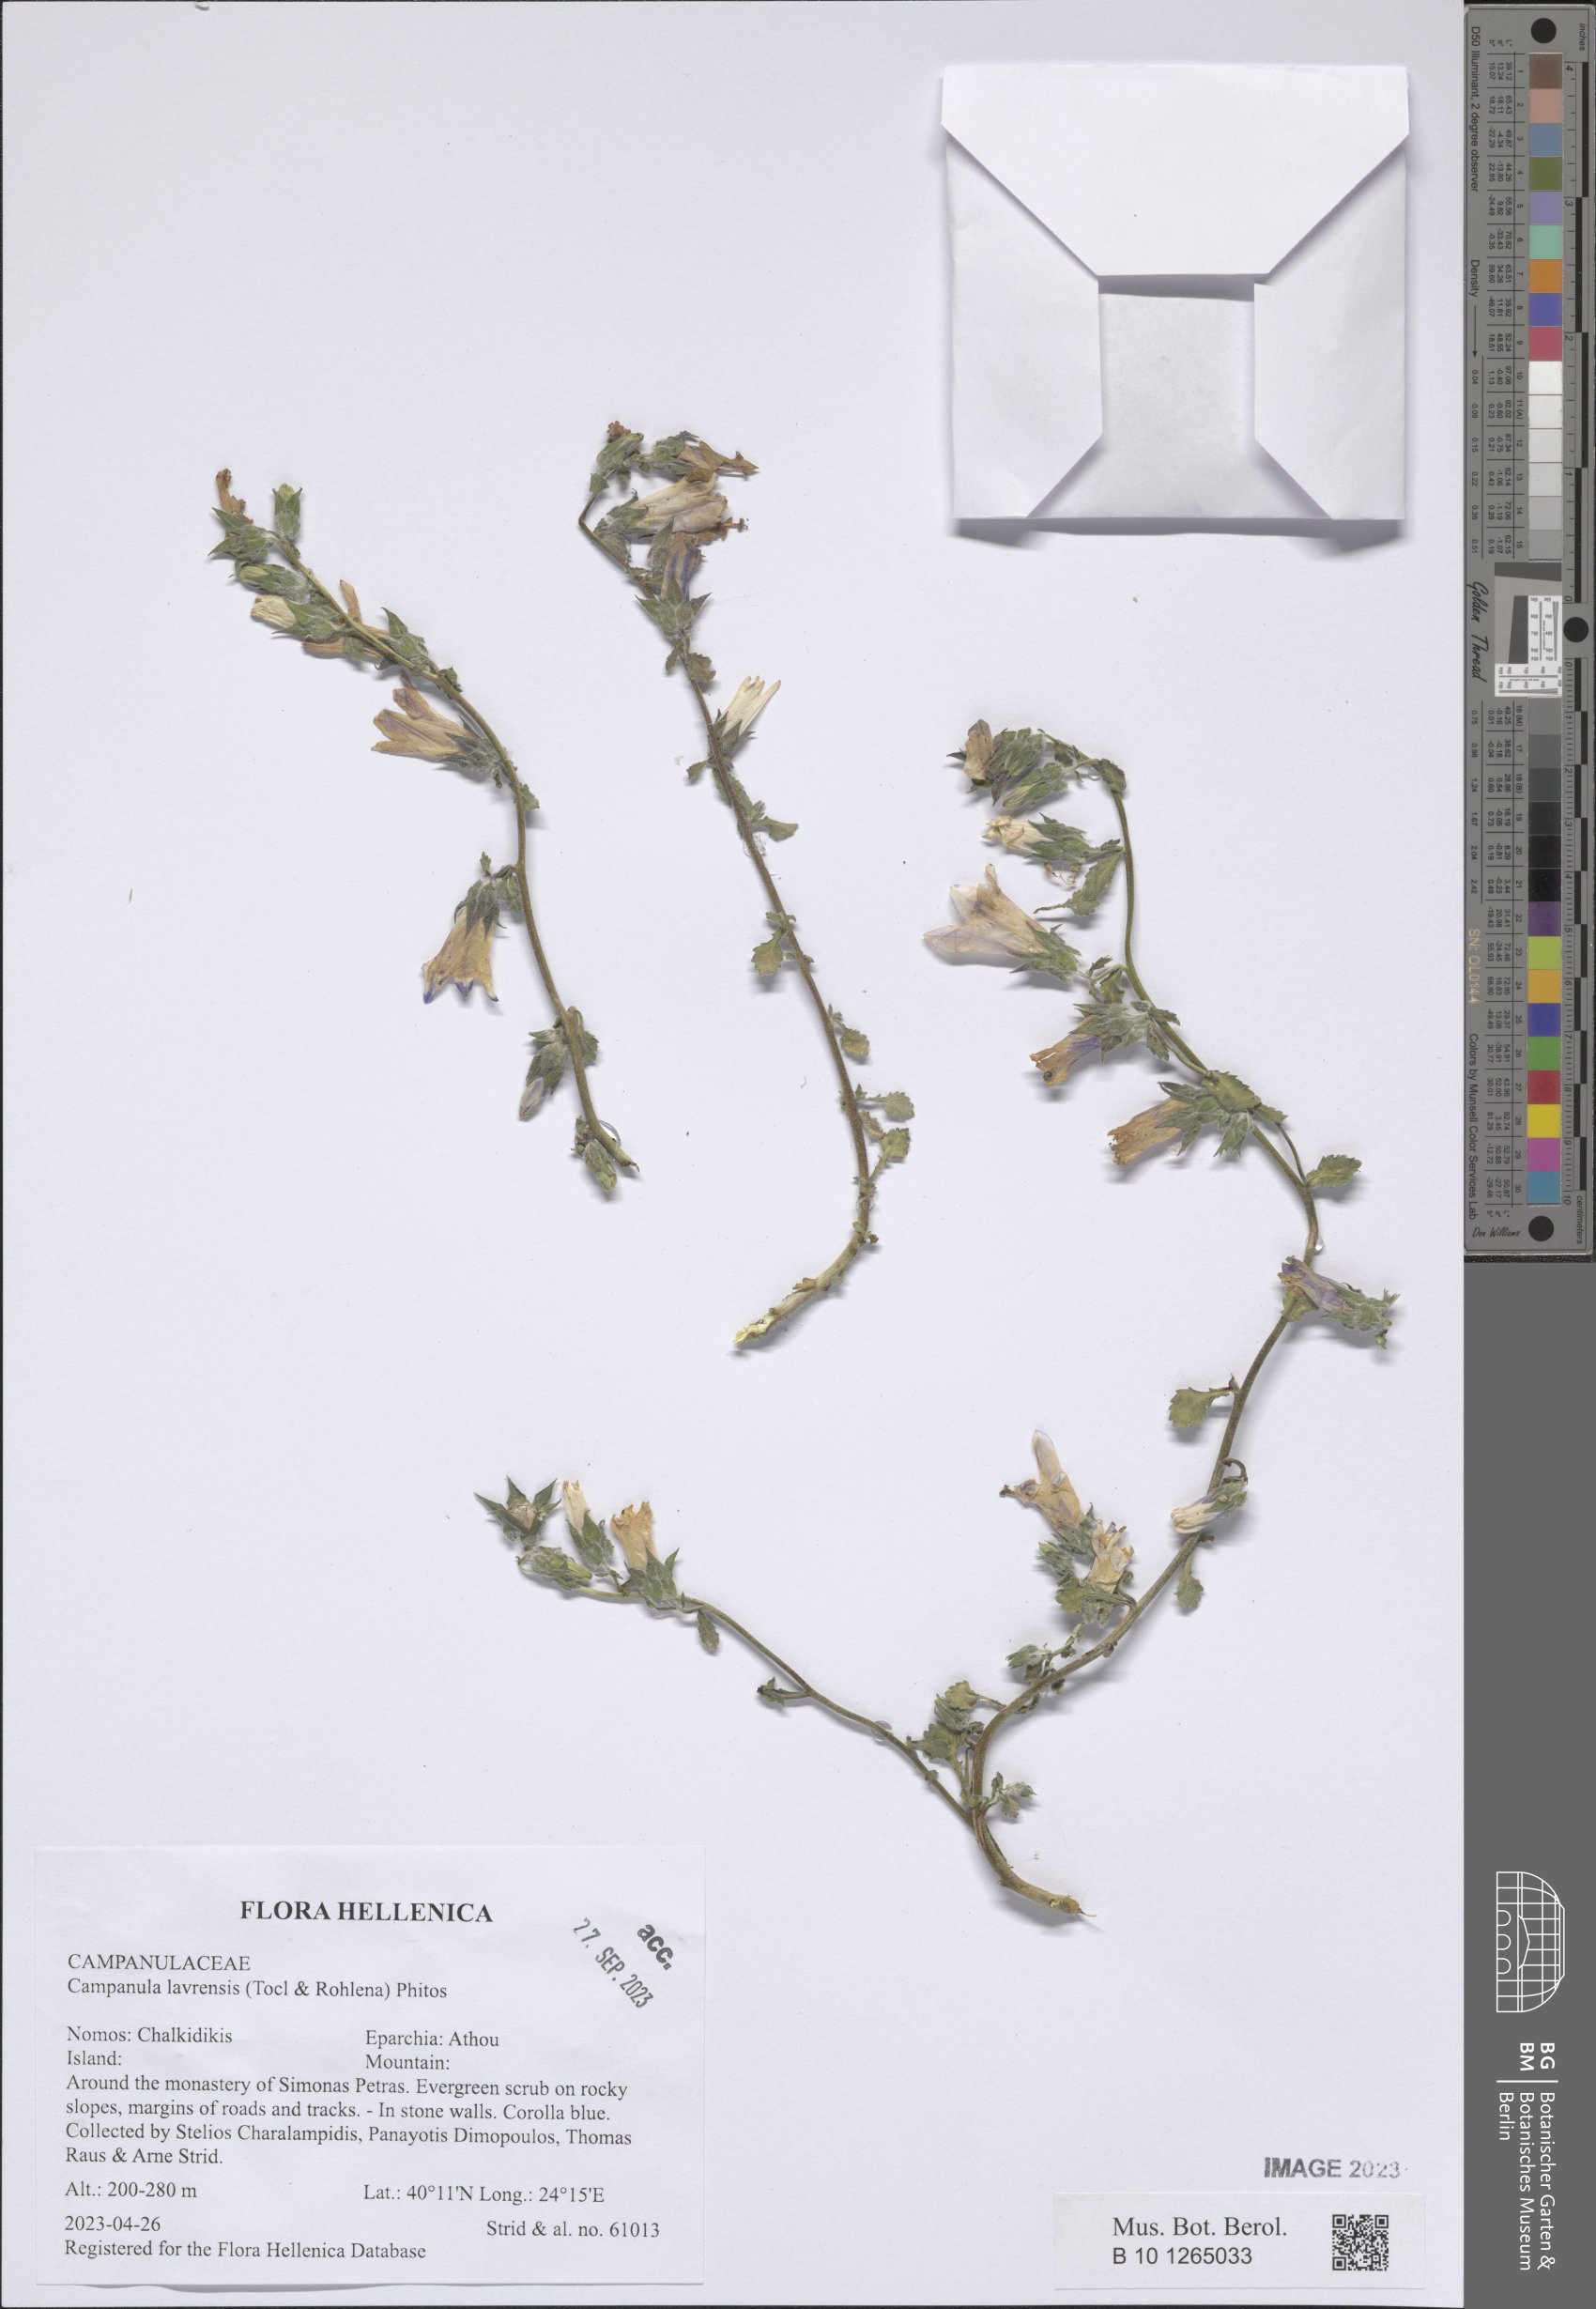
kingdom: Plantae
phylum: Tracheophyta
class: Magnoliopsida
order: Asterales
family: Campanulaceae
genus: Campanula
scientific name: Campanula lavrensis
